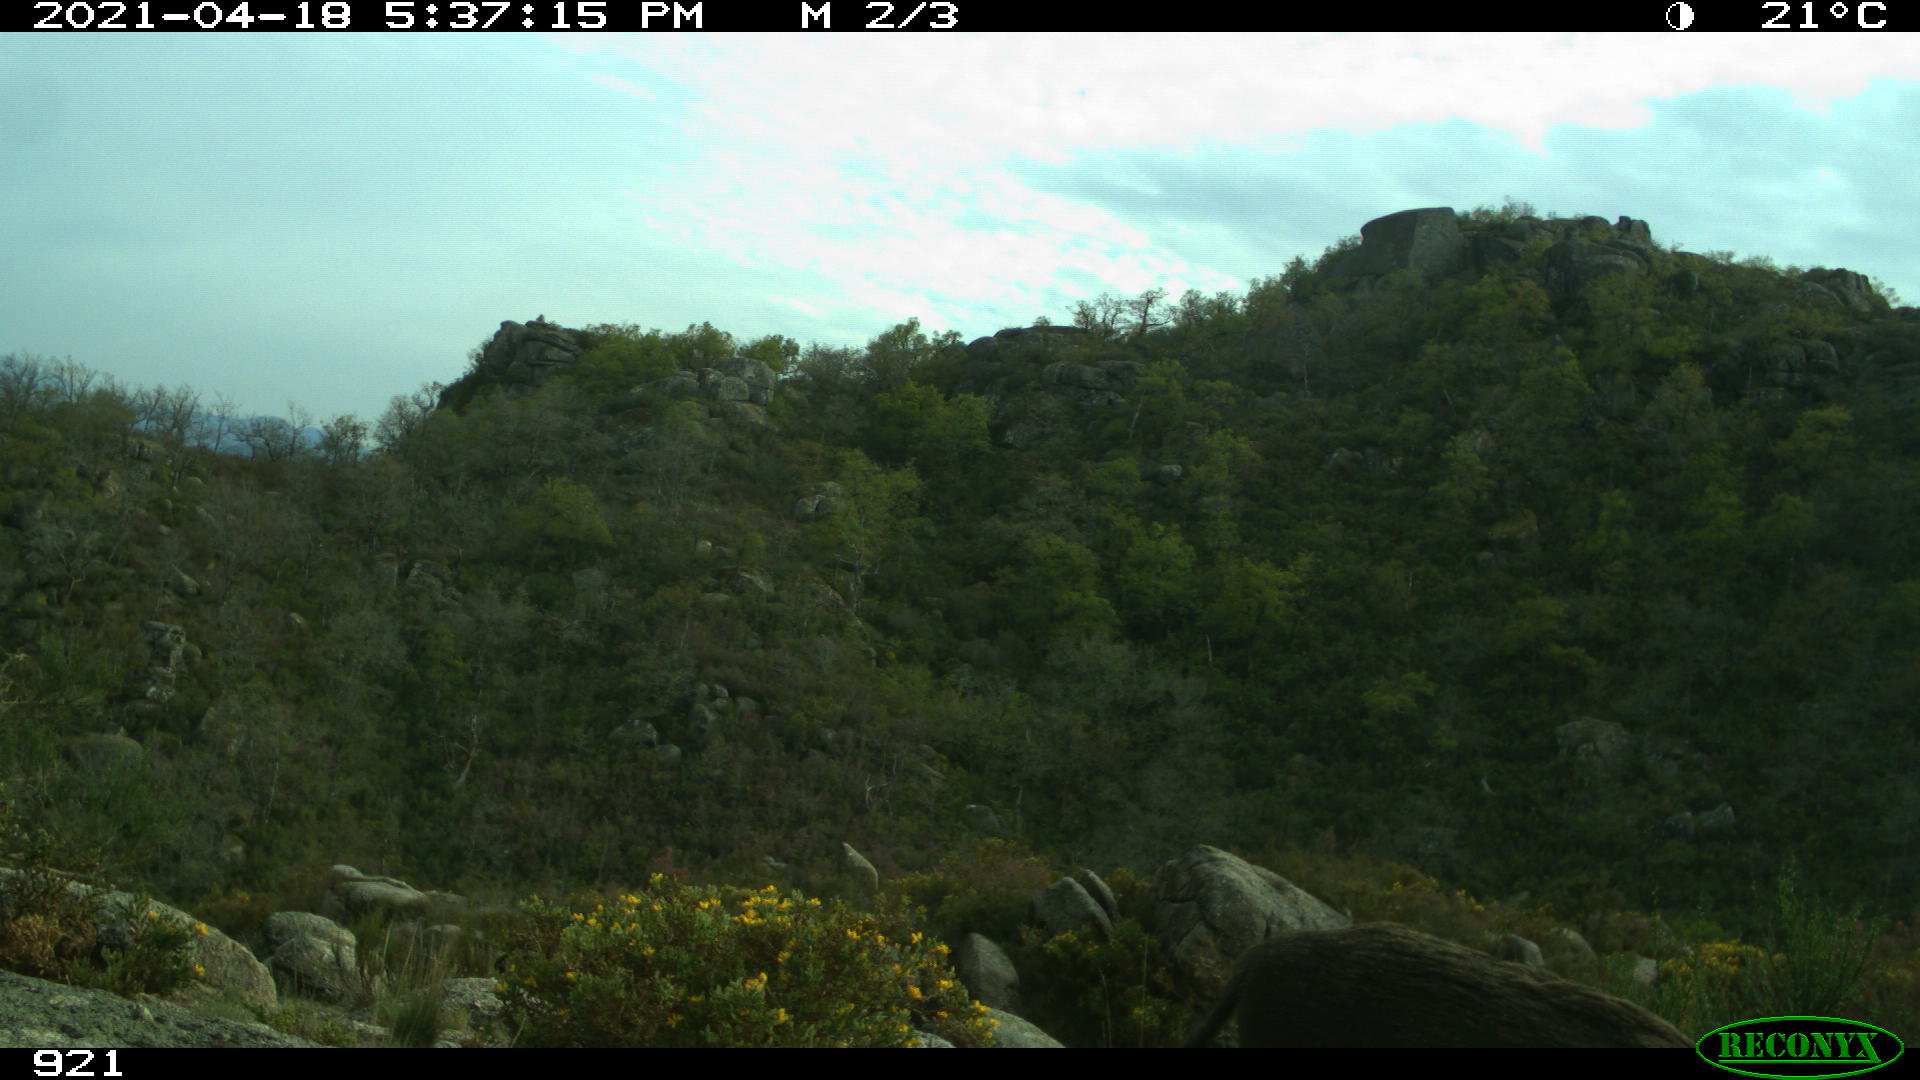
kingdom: Animalia
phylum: Chordata
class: Mammalia
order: Artiodactyla
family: Suidae
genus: Sus
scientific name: Sus scrofa
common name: Wild boar
